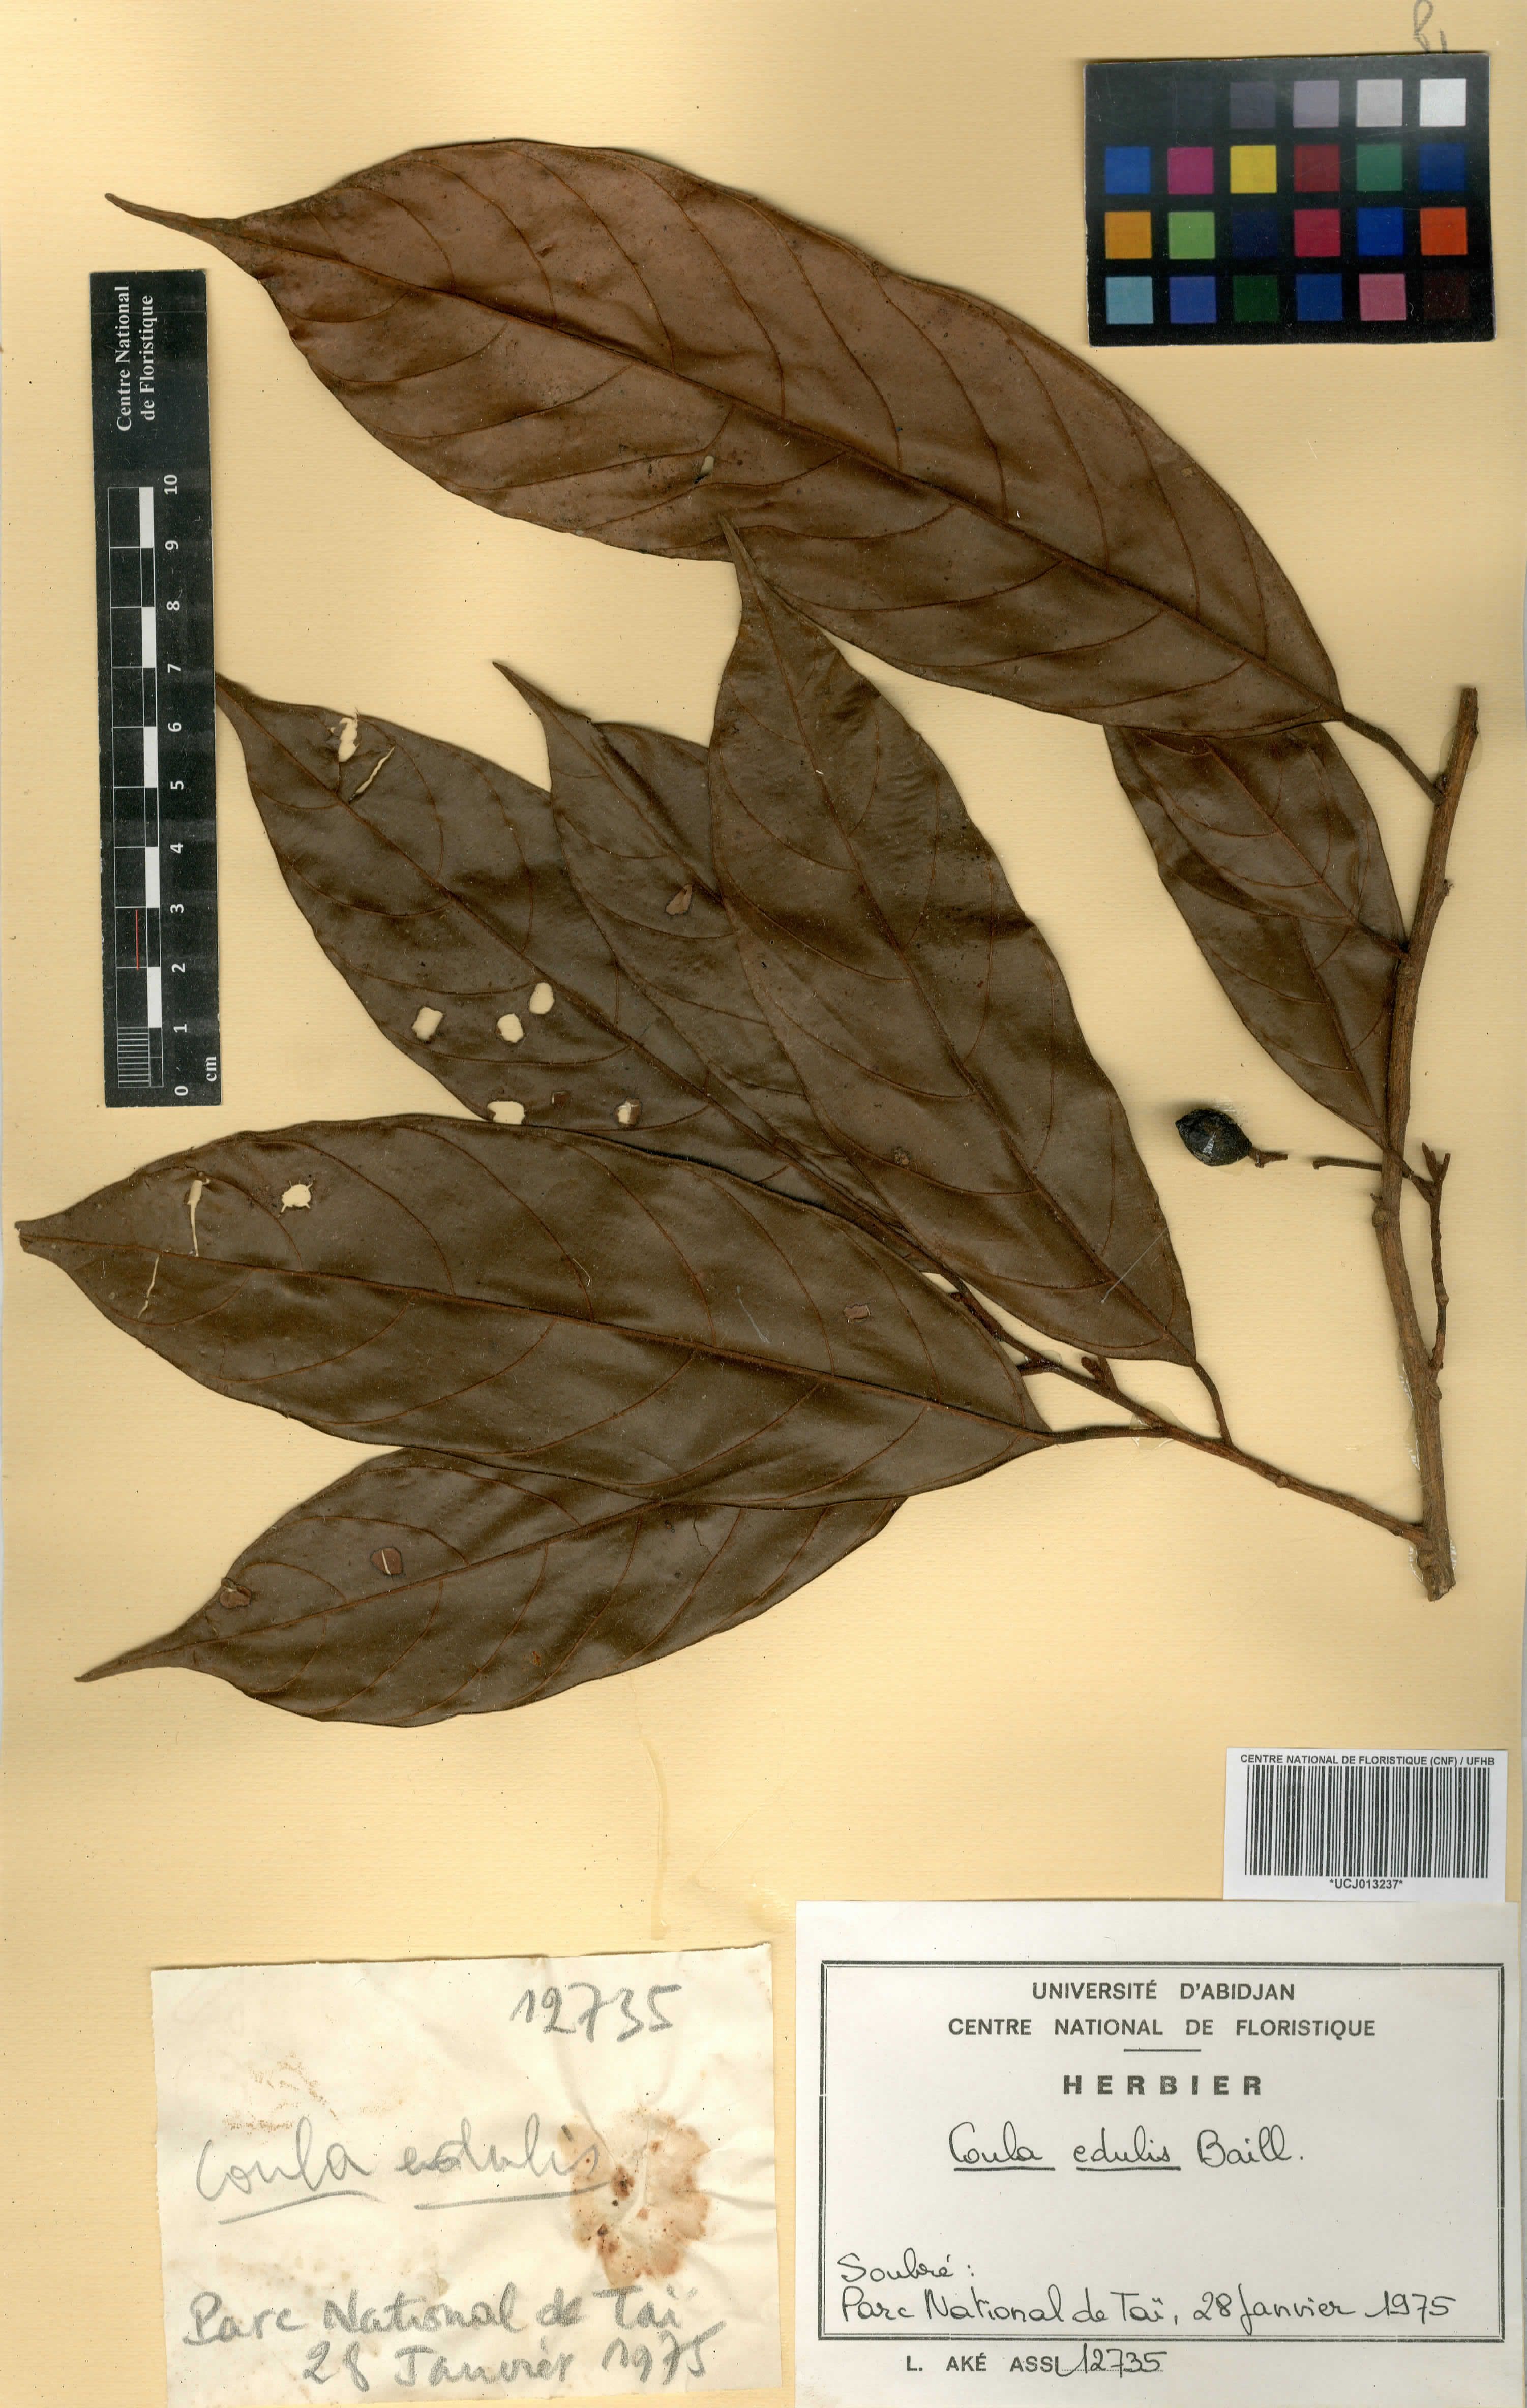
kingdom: Plantae
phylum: Tracheophyta
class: Magnoliopsida
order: Santalales
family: Coulaceae
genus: Coula
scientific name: Coula edulis
